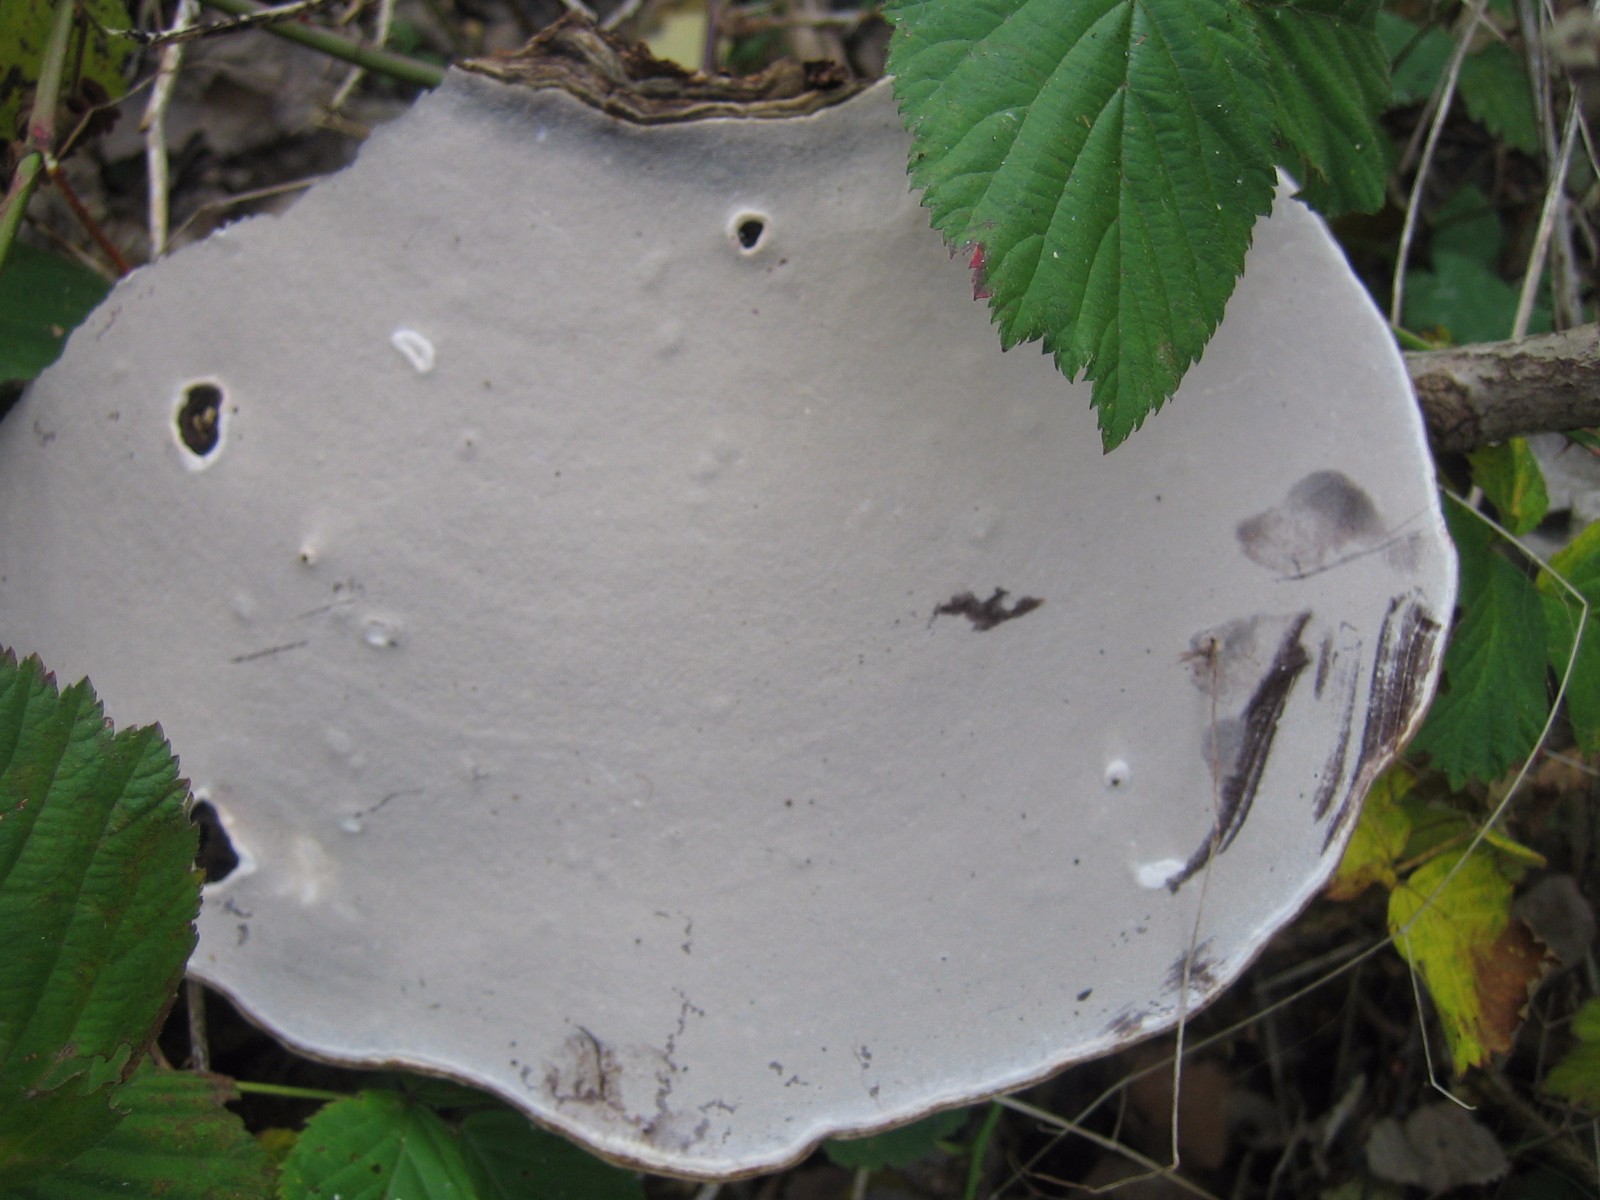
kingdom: Fungi
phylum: Basidiomycota
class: Agaricomycetes
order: Polyporales
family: Polyporaceae
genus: Ganoderma
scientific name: Ganoderma applanatum
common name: flad lakporesvamp
